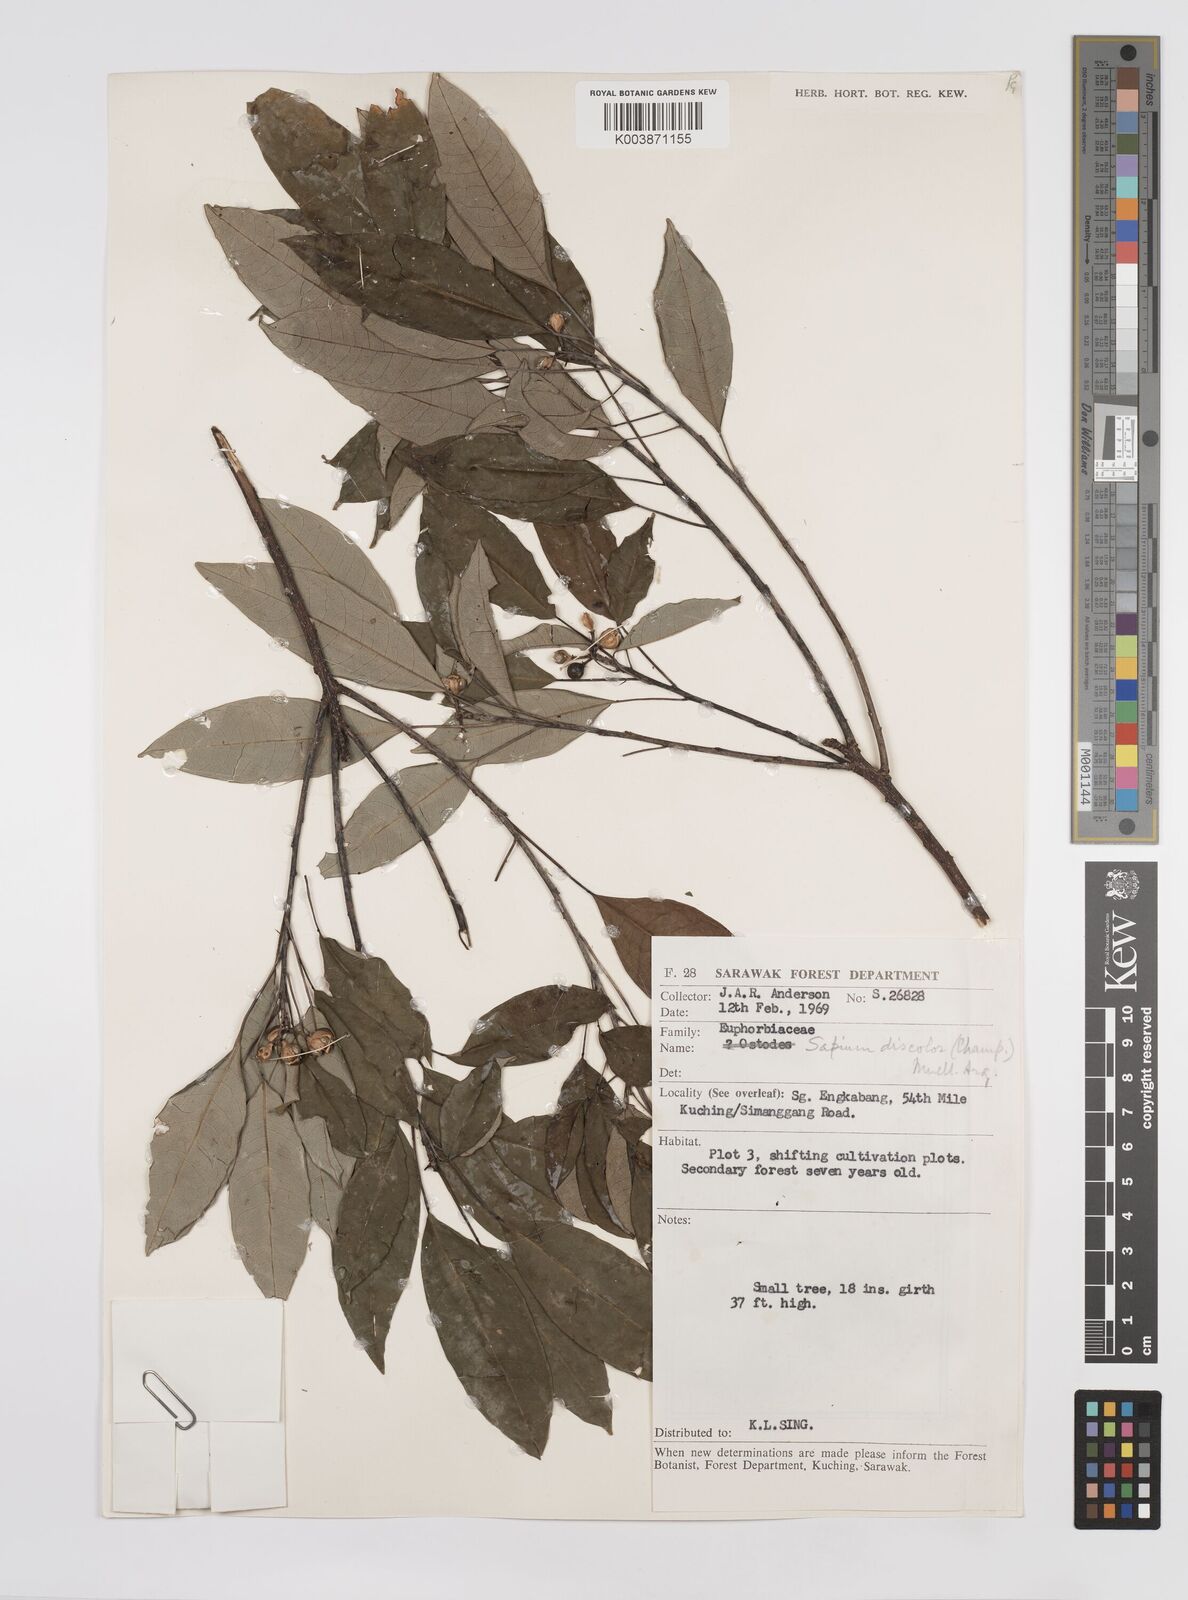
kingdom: Plantae
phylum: Tracheophyta
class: Magnoliopsida
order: Malpighiales
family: Euphorbiaceae
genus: Triadica
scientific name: Triadica cochinchinensis
